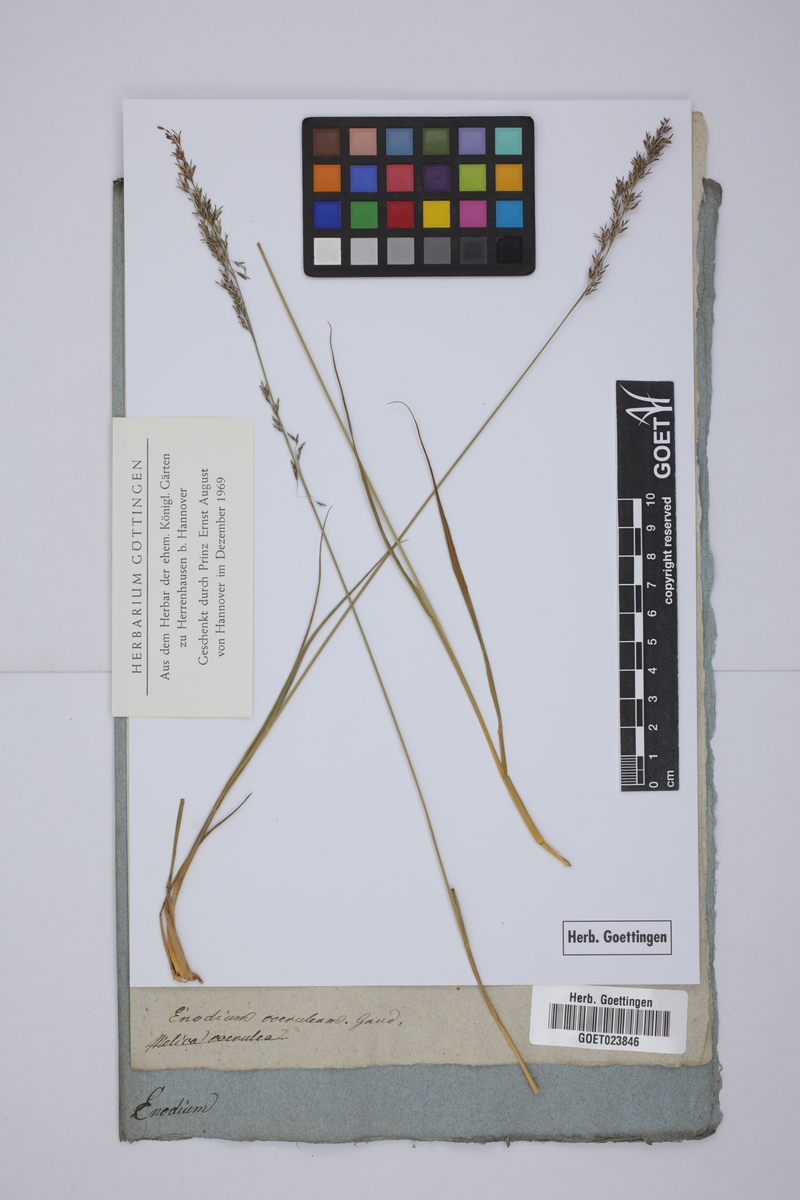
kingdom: Plantae
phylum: Tracheophyta
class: Liliopsida
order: Poales
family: Poaceae
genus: Molinia
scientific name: Molinia caerulea
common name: Purple moor-grass
